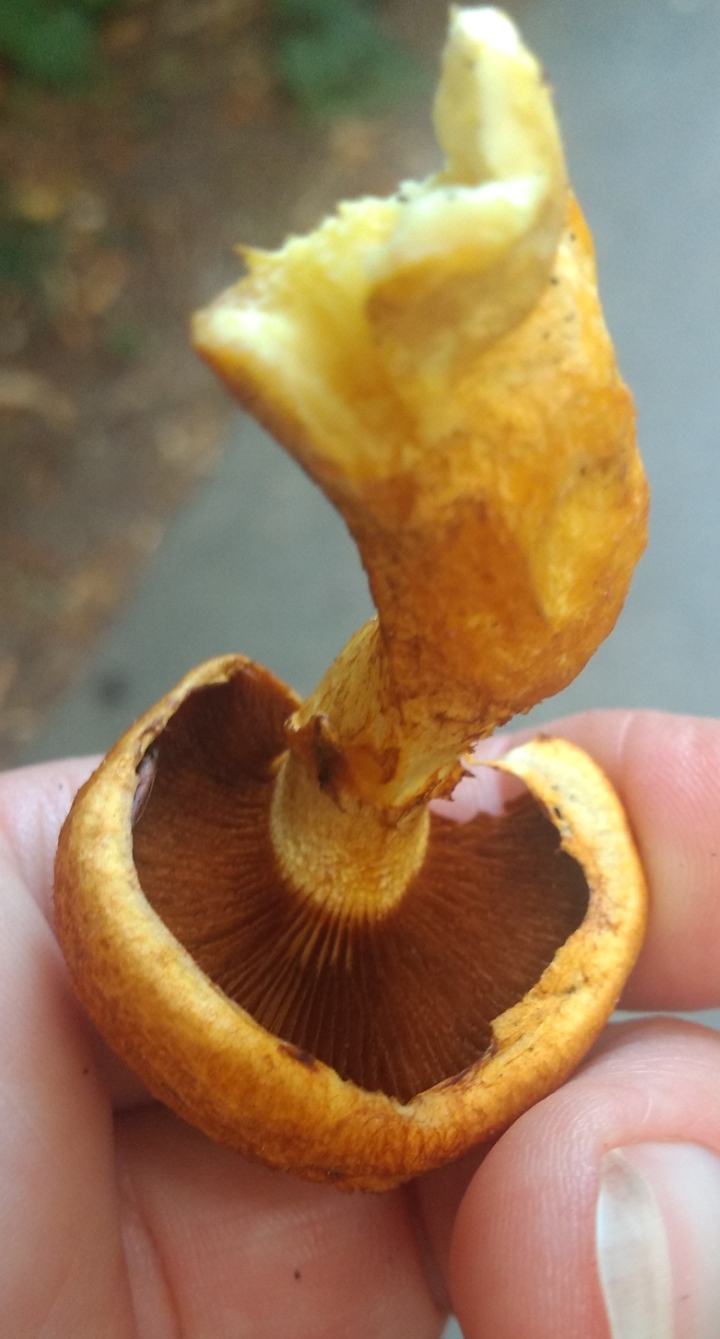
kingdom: Fungi
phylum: Basidiomycota
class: Agaricomycetes
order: Agaricales
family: Hymenogastraceae
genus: Gymnopilus
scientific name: Gymnopilus spectabilis
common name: fibret flammehat
